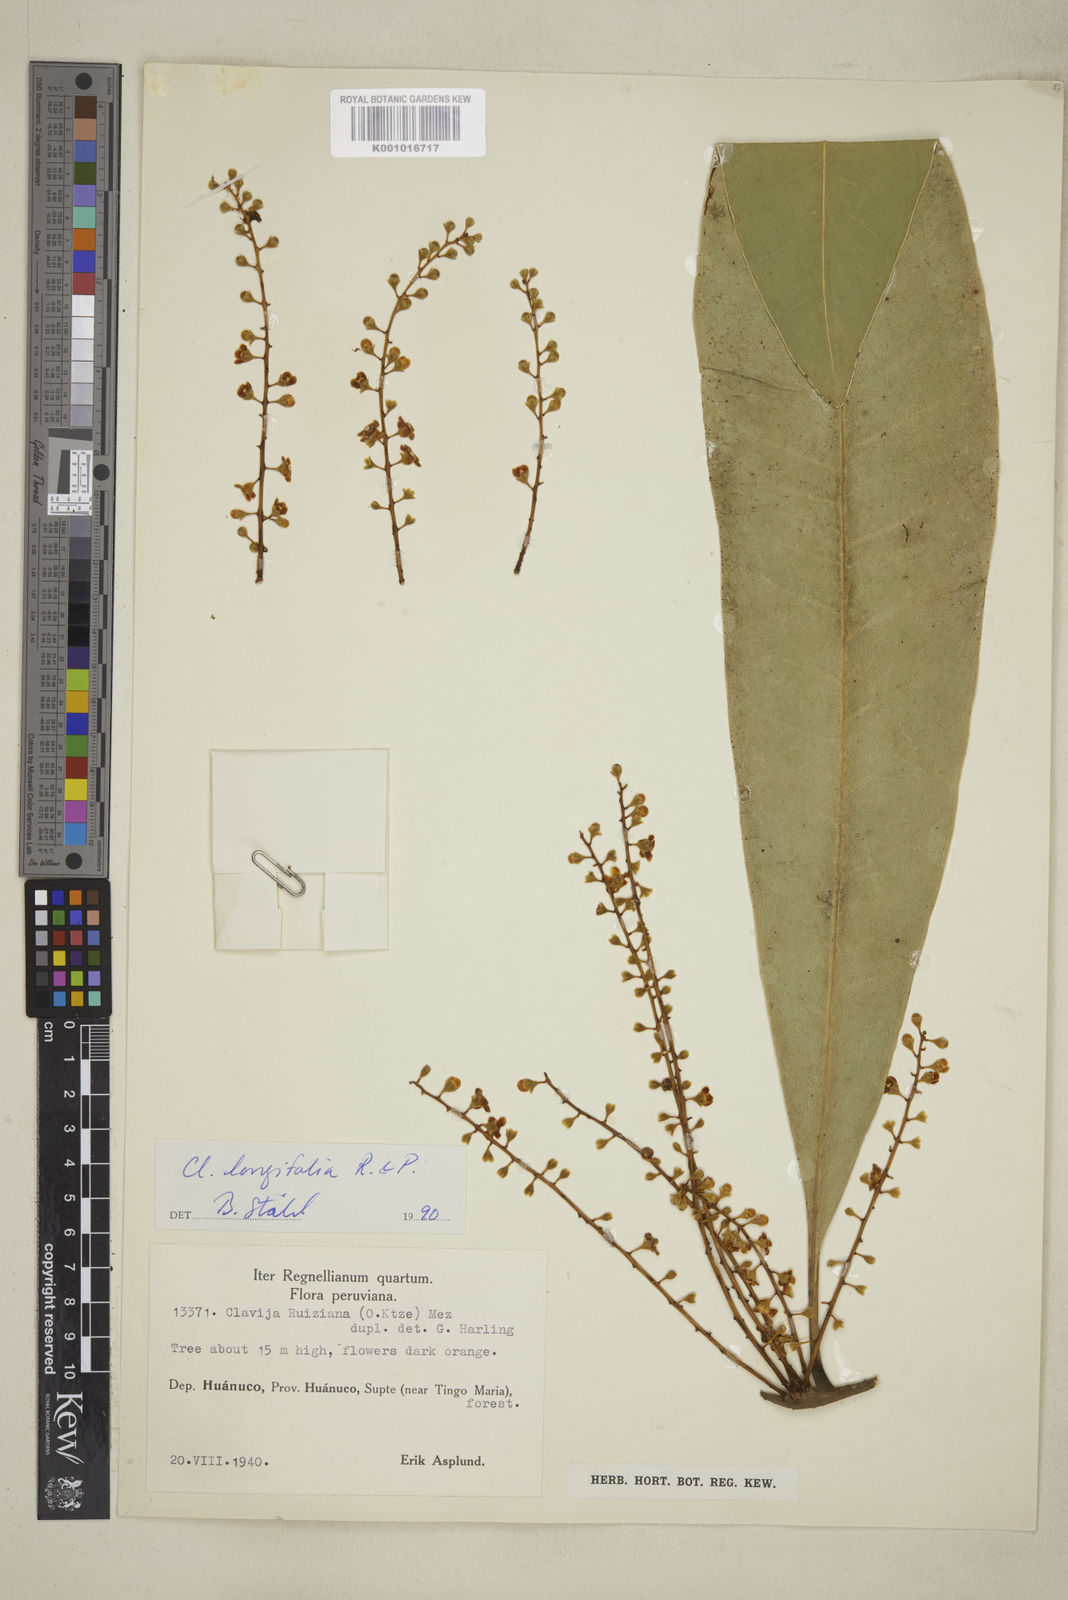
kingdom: Plantae
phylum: Tracheophyta
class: Magnoliopsida
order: Ericales
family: Primulaceae
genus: Clavija
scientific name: Clavija longifolia
